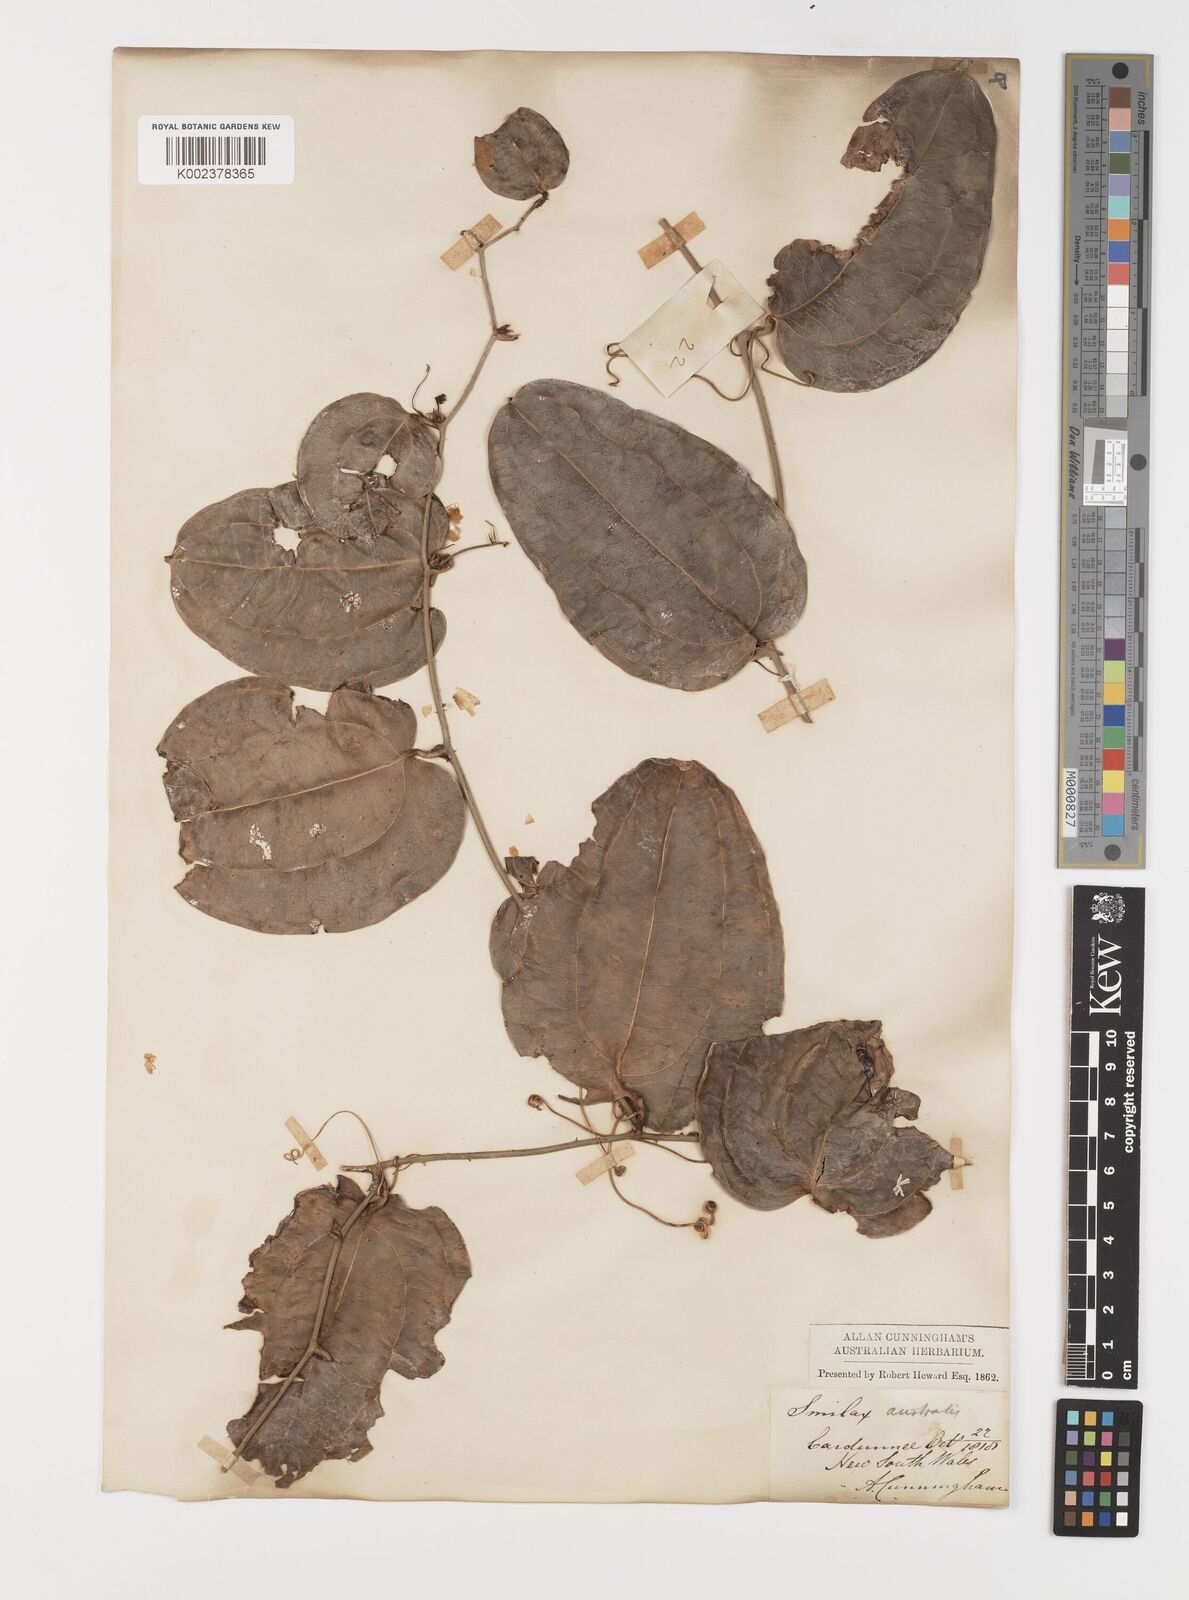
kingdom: Plantae
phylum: Tracheophyta
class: Liliopsida
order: Liliales
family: Smilacaceae
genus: Smilax
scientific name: Smilax australis
